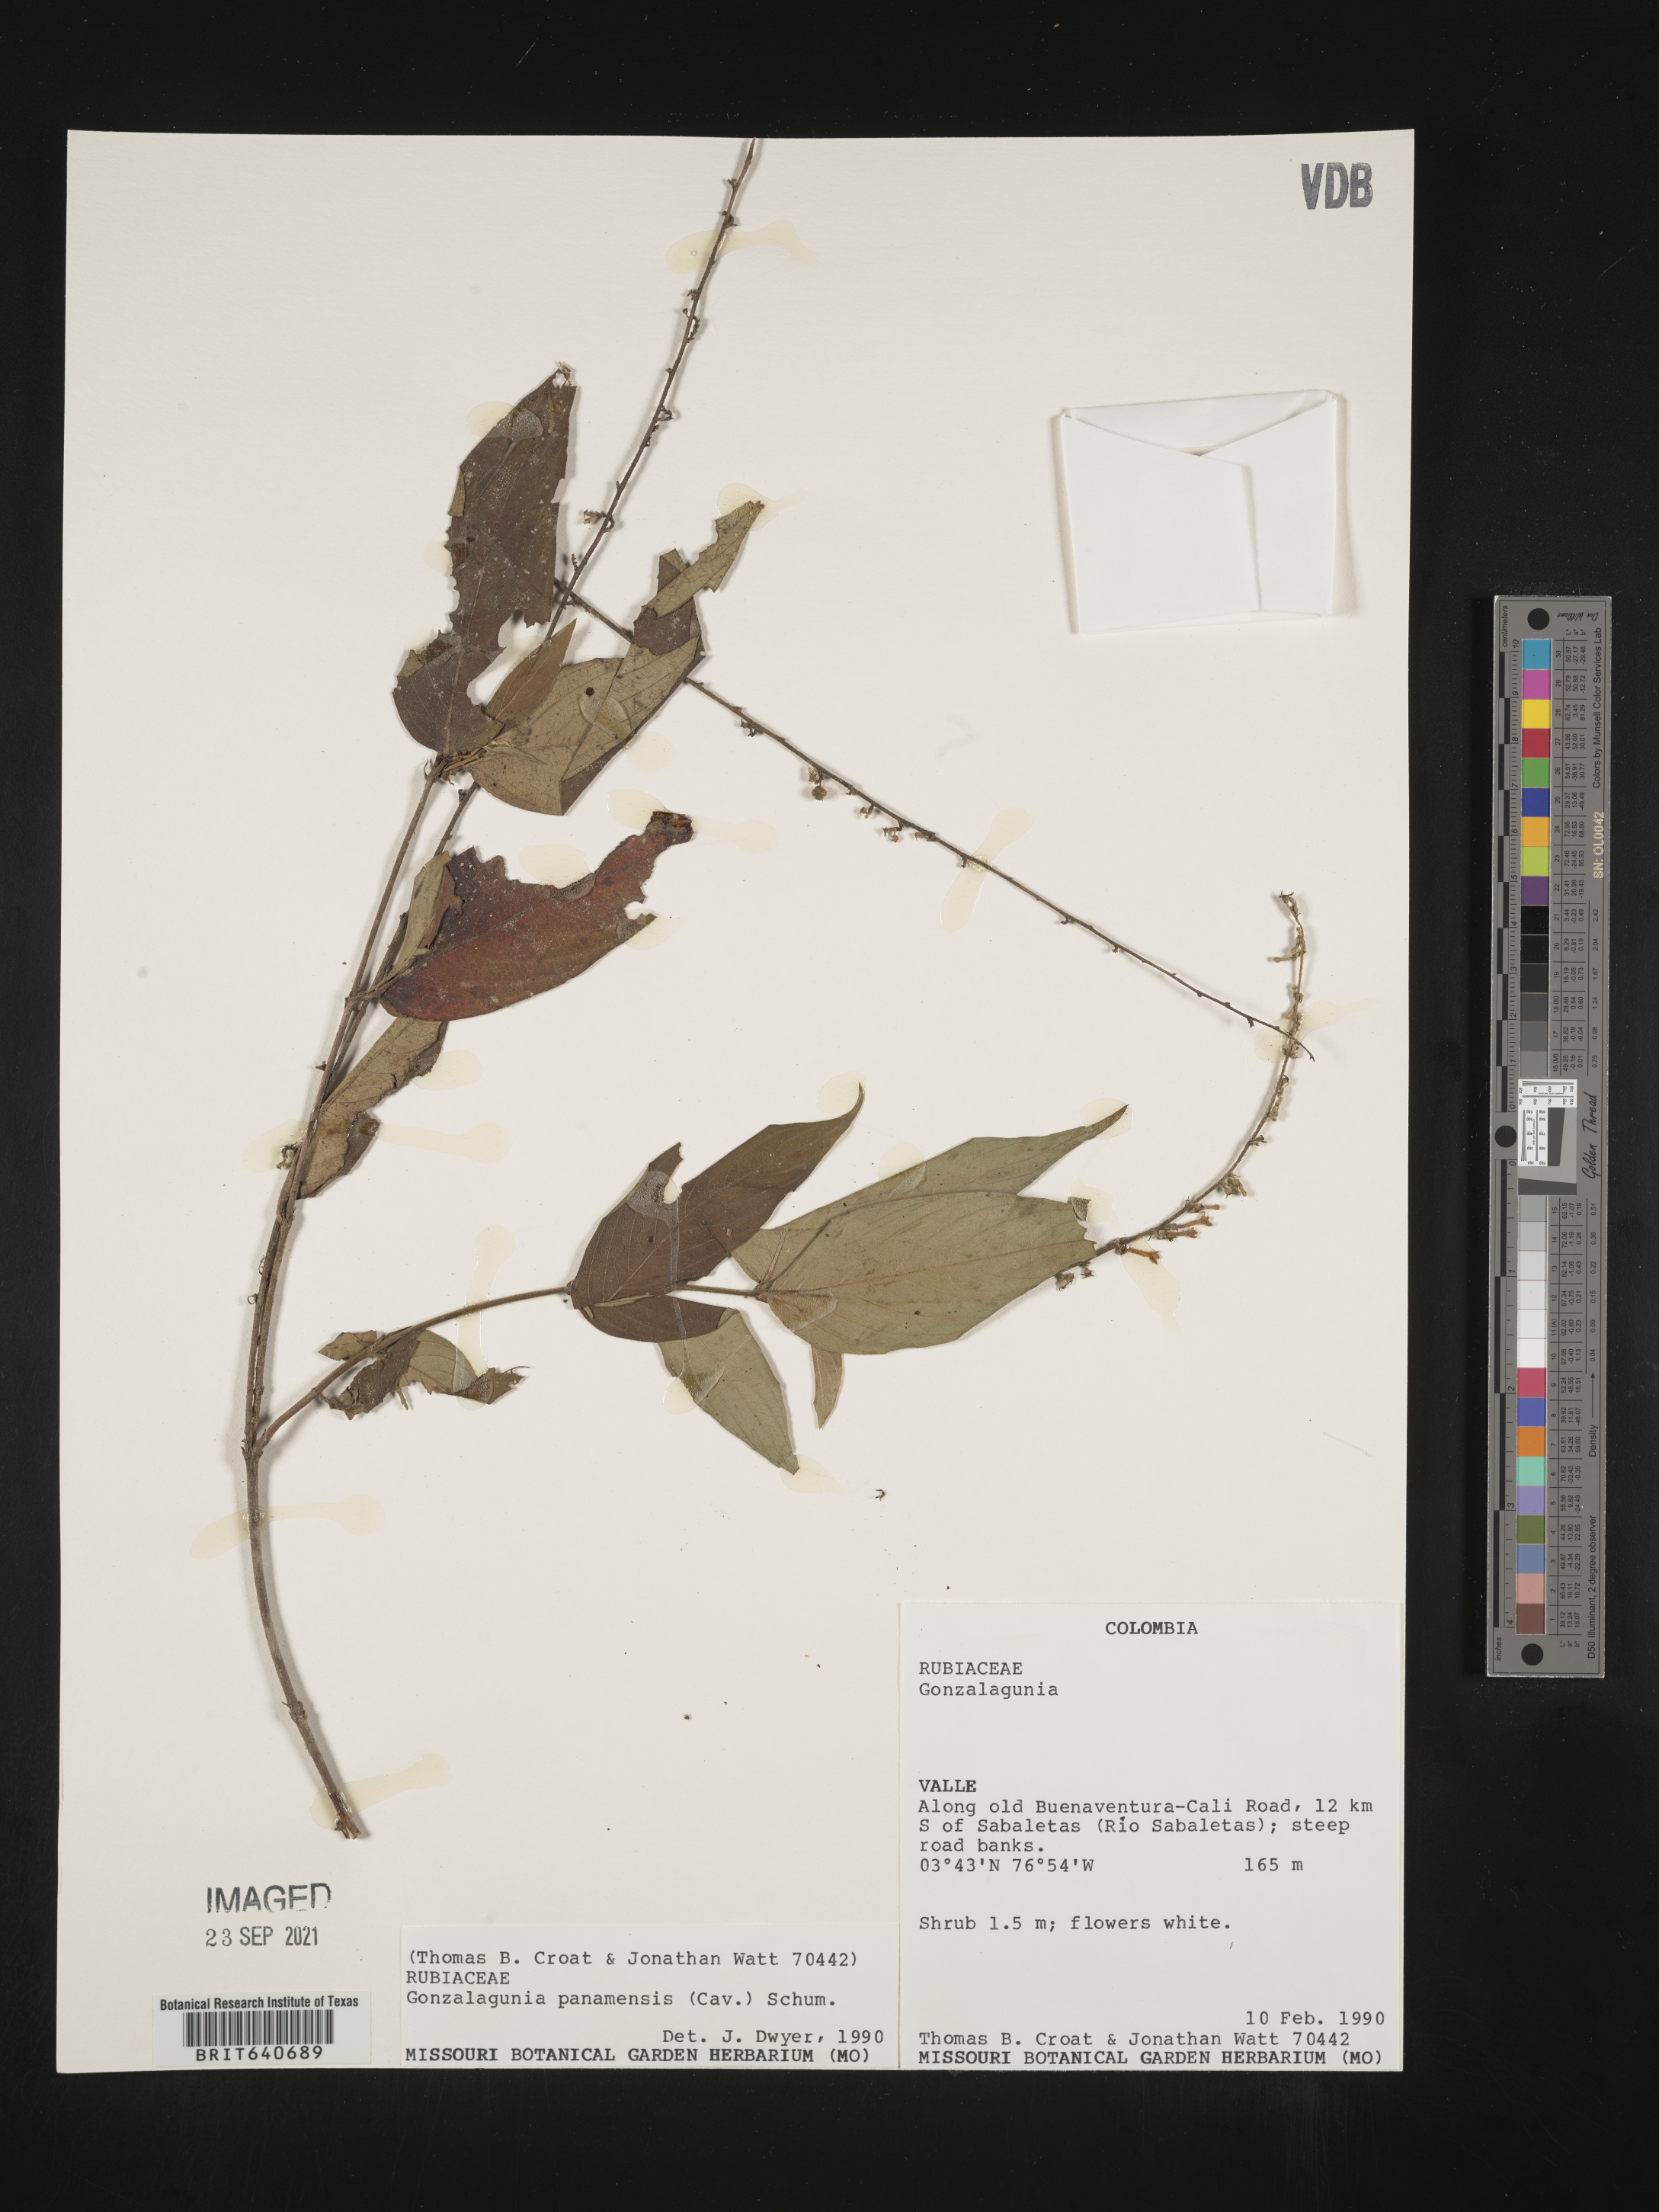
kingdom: Plantae
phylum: Tracheophyta
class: Magnoliopsida
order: Gentianales
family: Rubiaceae
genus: Gonzalagunia
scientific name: Gonzalagunia
